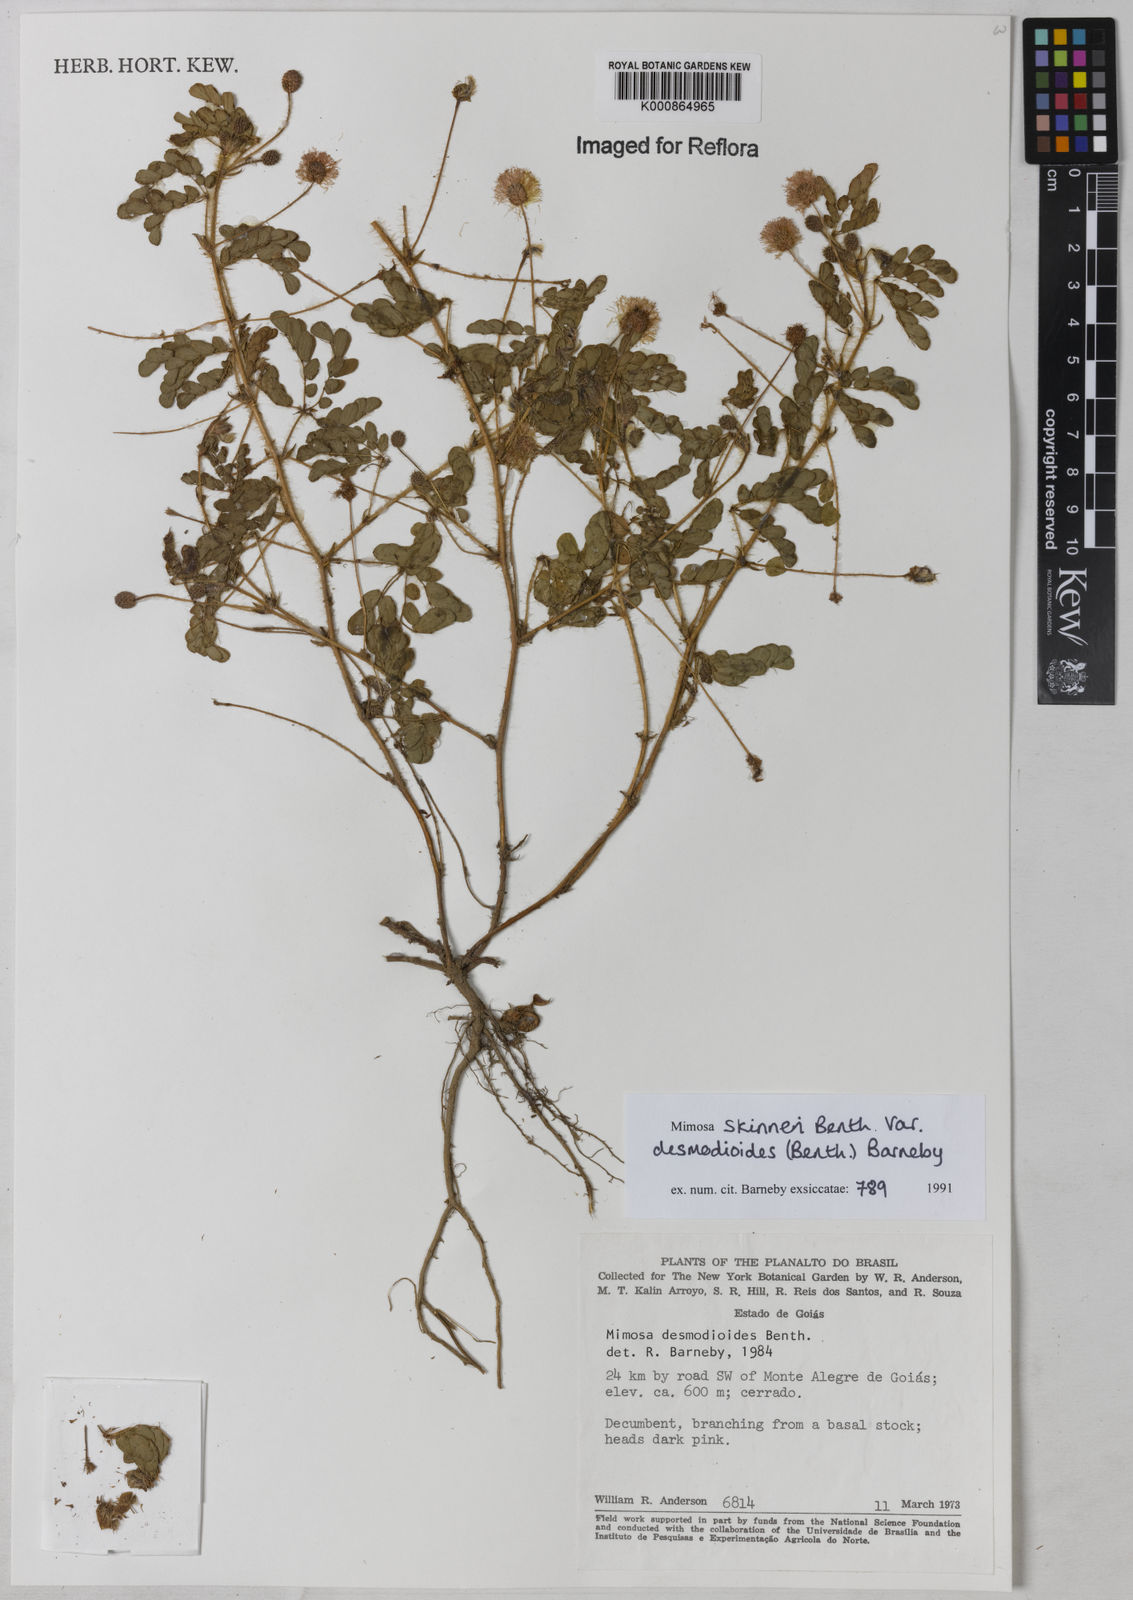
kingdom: Plantae
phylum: Tracheophyta
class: Magnoliopsida
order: Fabales
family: Fabaceae
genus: Mimosa
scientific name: Mimosa skinneri
